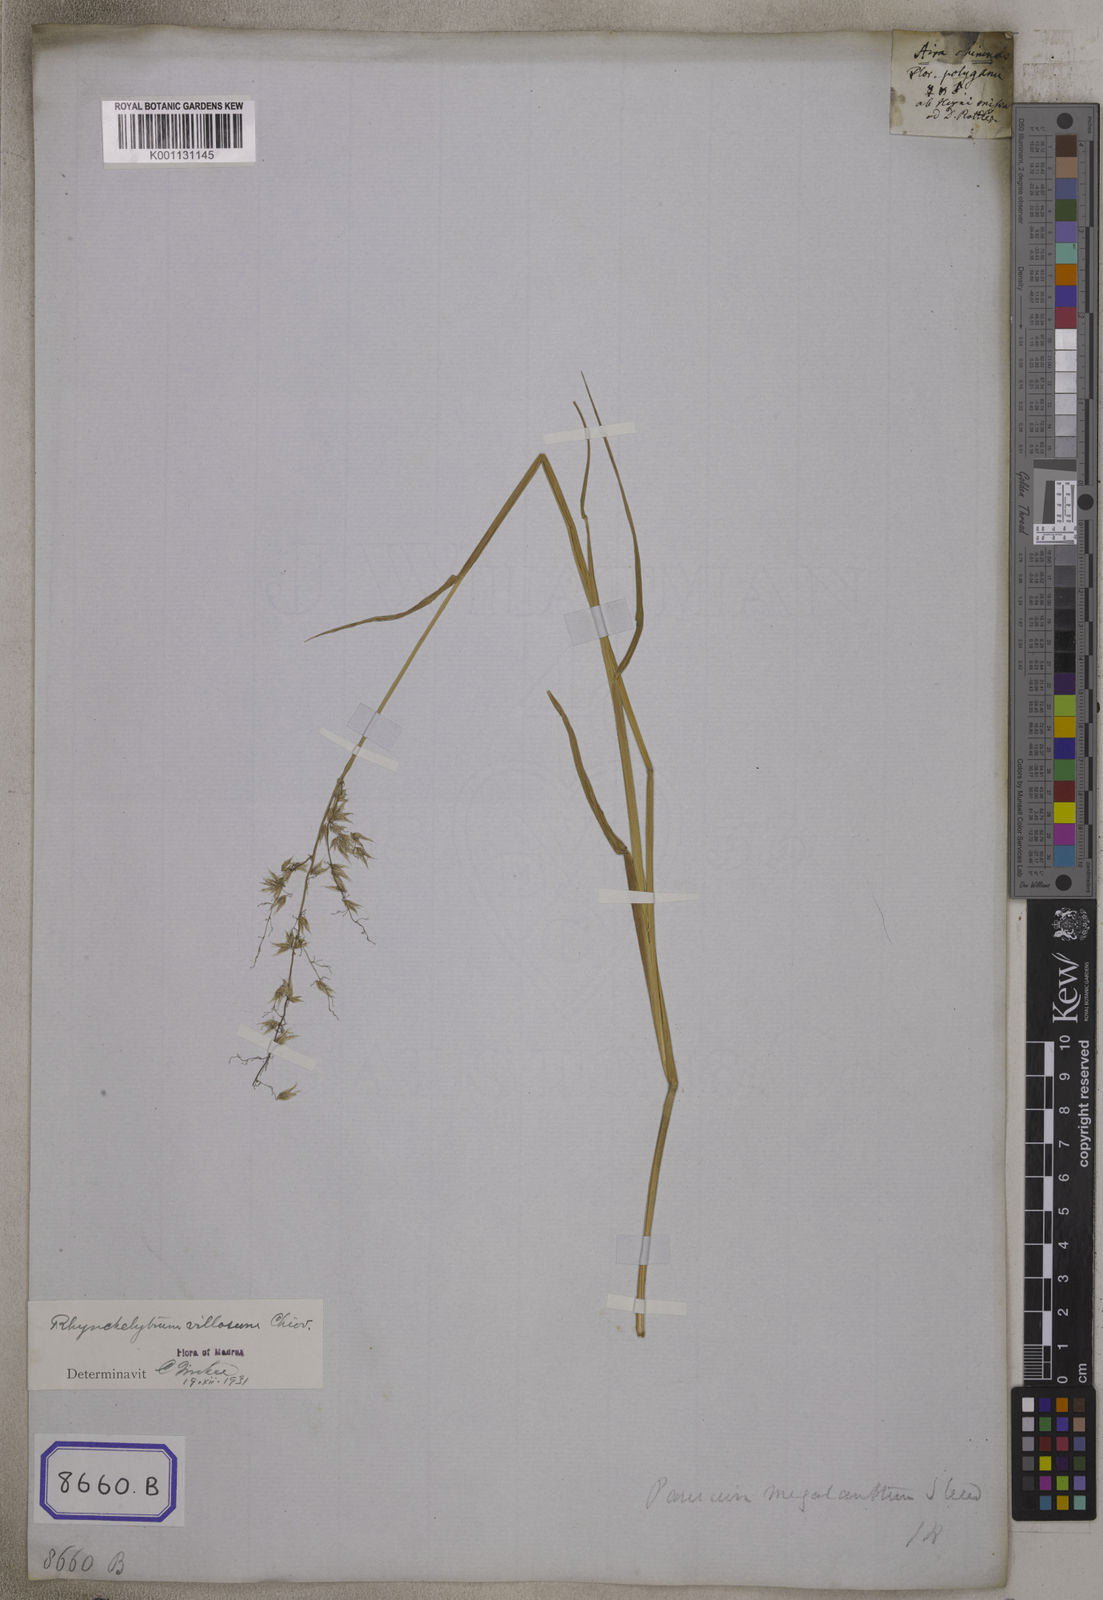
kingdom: Plantae
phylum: Tracheophyta
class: Liliopsida
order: Poales
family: Poaceae
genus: Tricholaena
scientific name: Tricholaena
